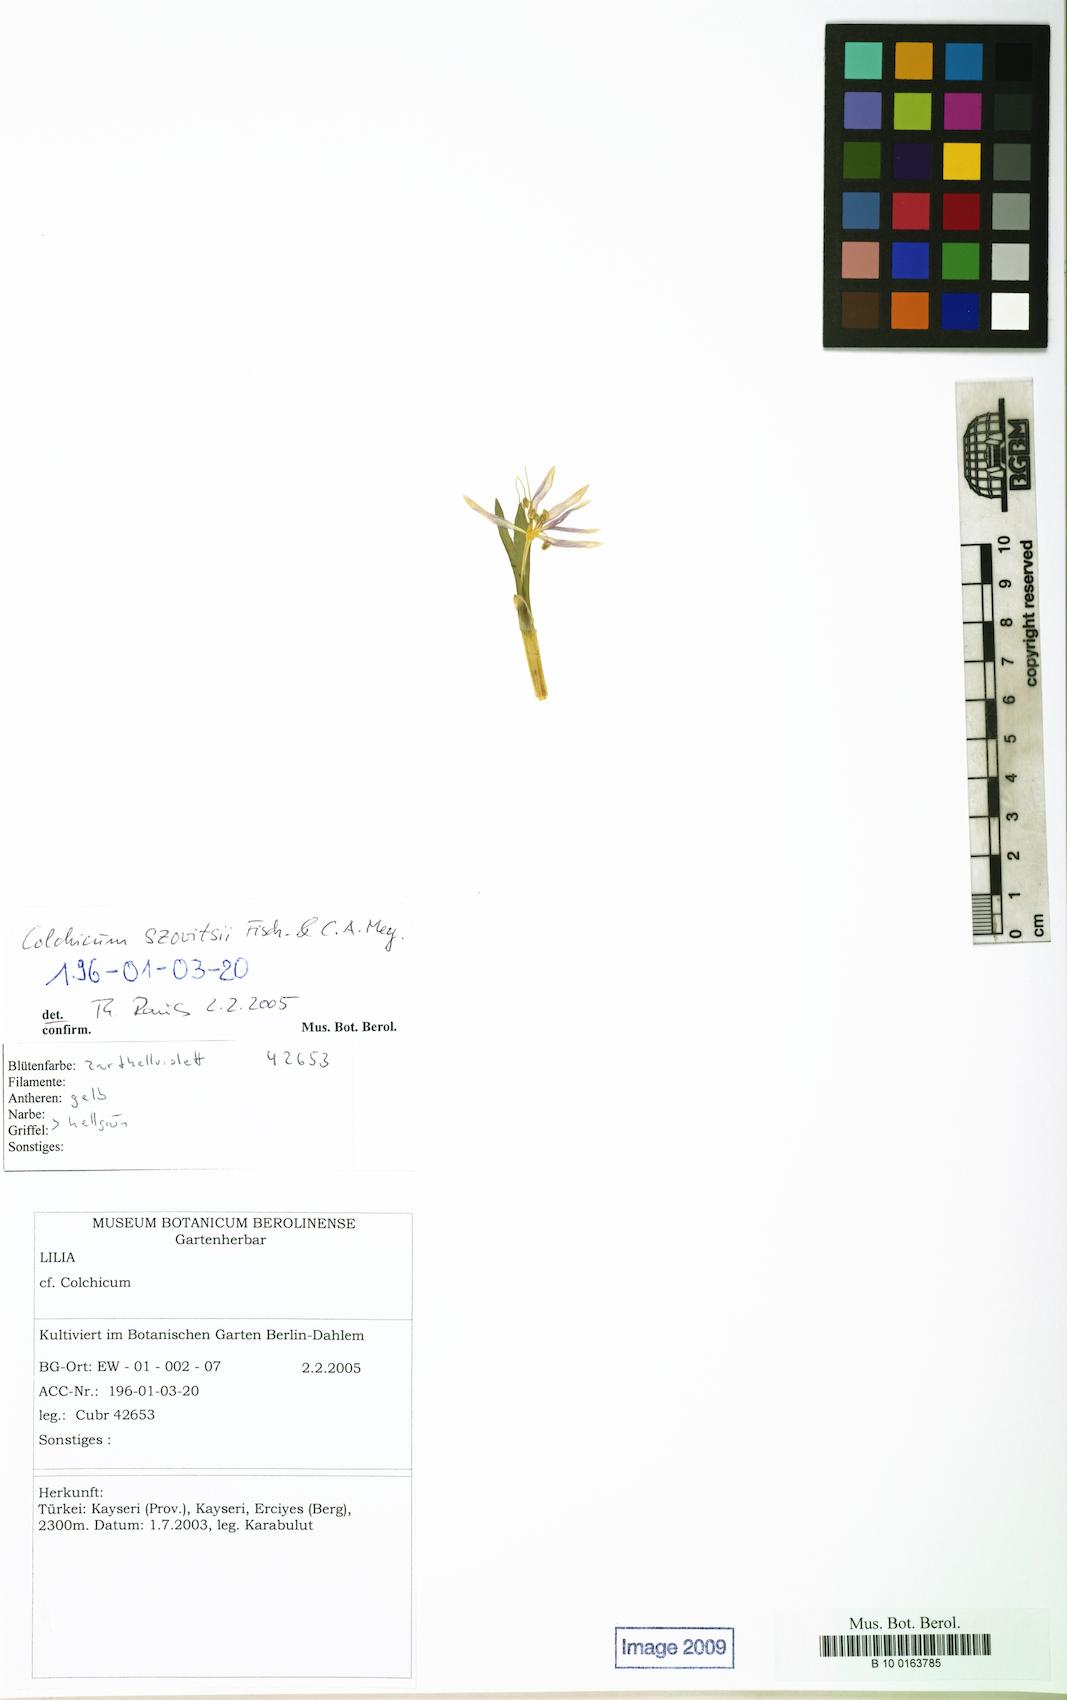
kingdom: Plantae
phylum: Tracheophyta
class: Liliopsida
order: Liliales
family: Colchicaceae
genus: Colchicum
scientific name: Colchicum szovitsii
